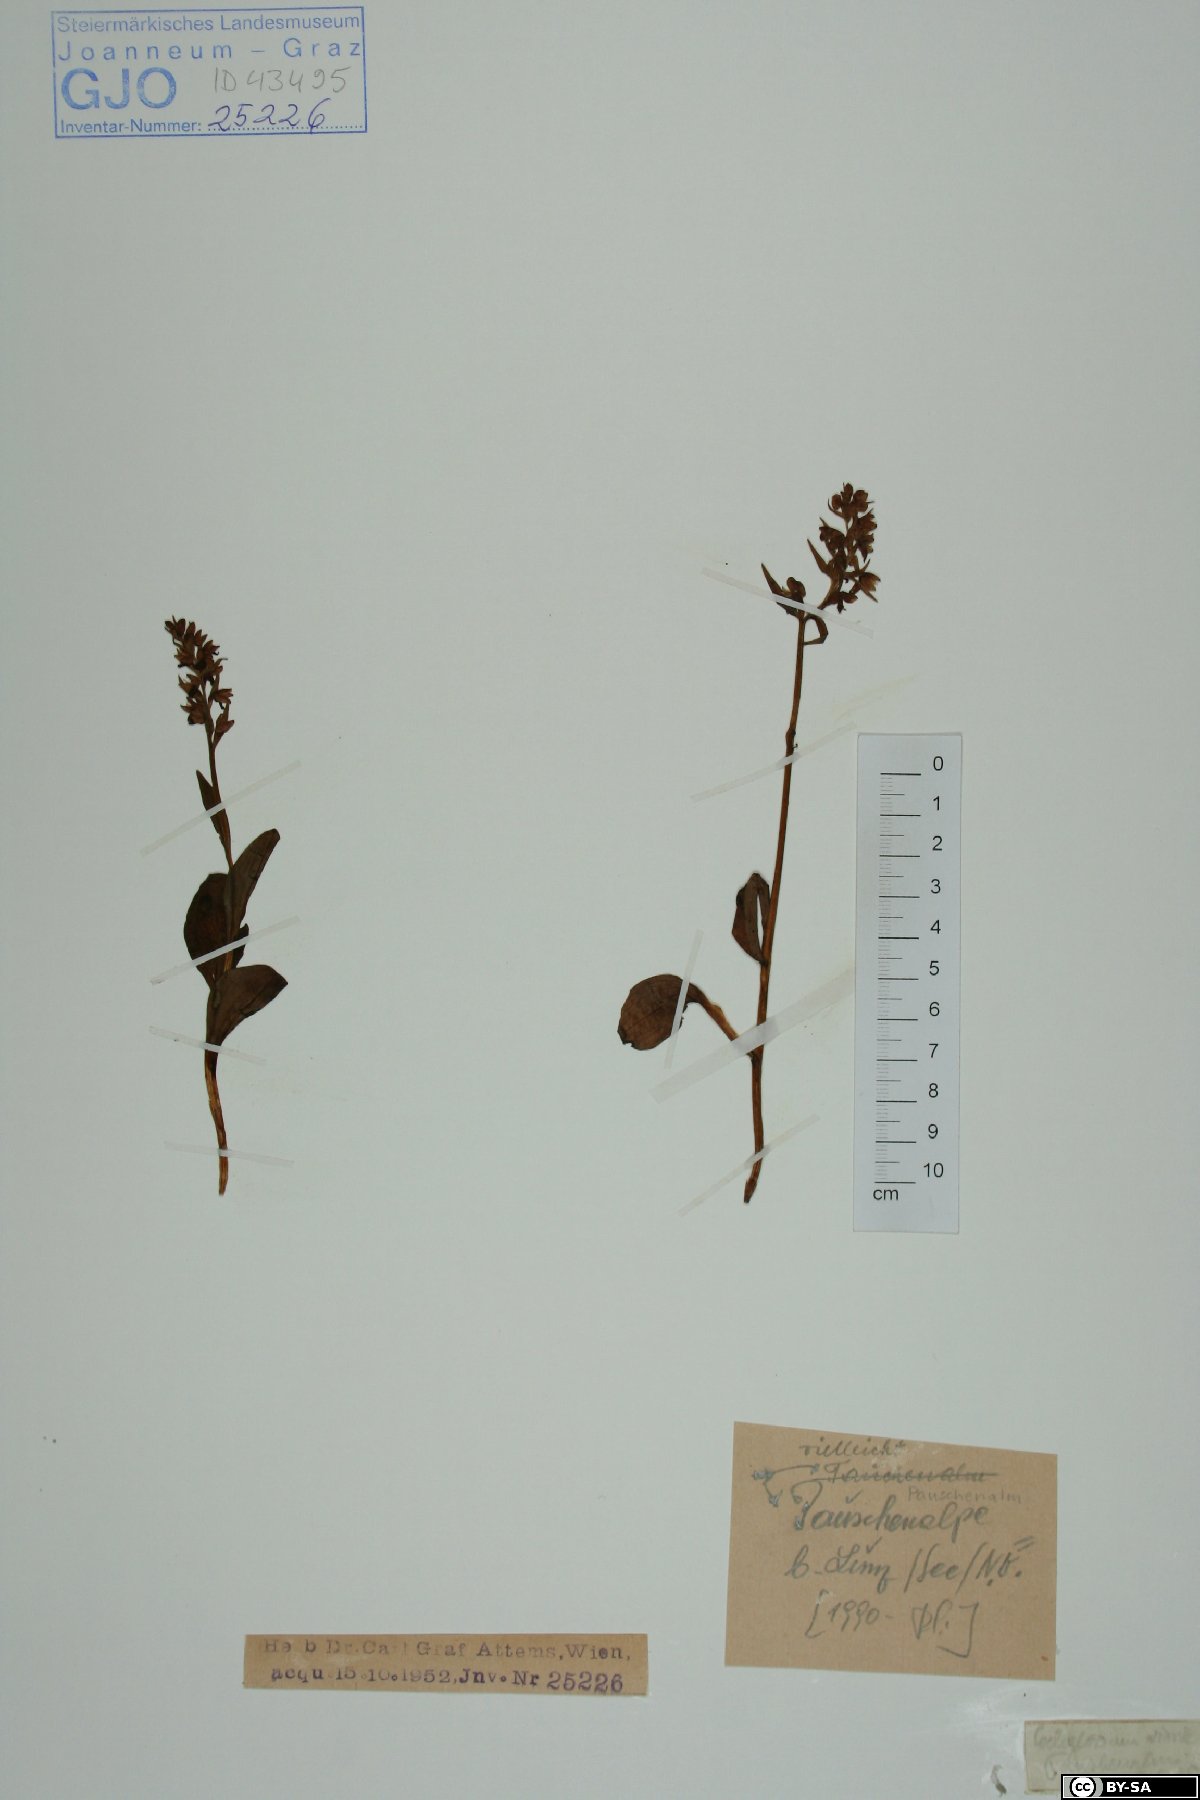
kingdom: Plantae
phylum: Tracheophyta
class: Liliopsida
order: Asparagales
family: Orchidaceae
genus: Dactylorhiza
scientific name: Dactylorhiza viridis
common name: Longbract frog orchid
